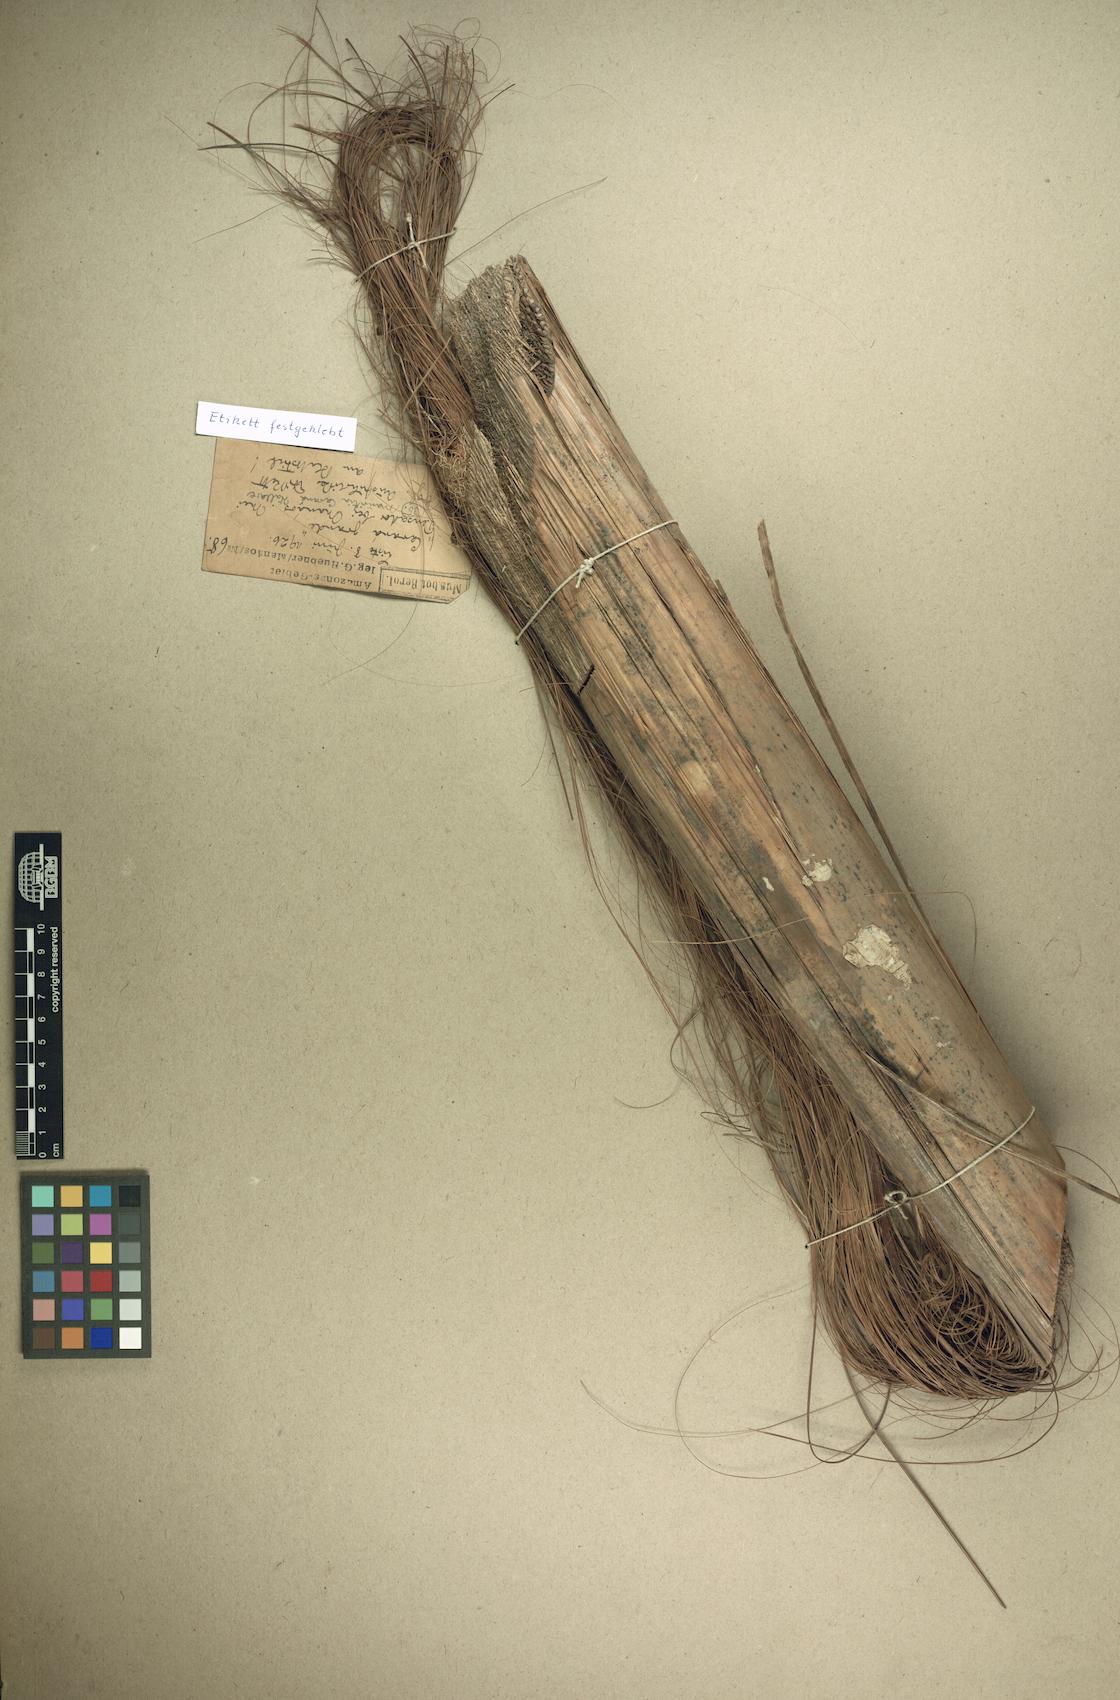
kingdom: Plantae
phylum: Tracheophyta
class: Liliopsida
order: Arecales
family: Arecaceae
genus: Mauritia
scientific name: Mauritia carana
